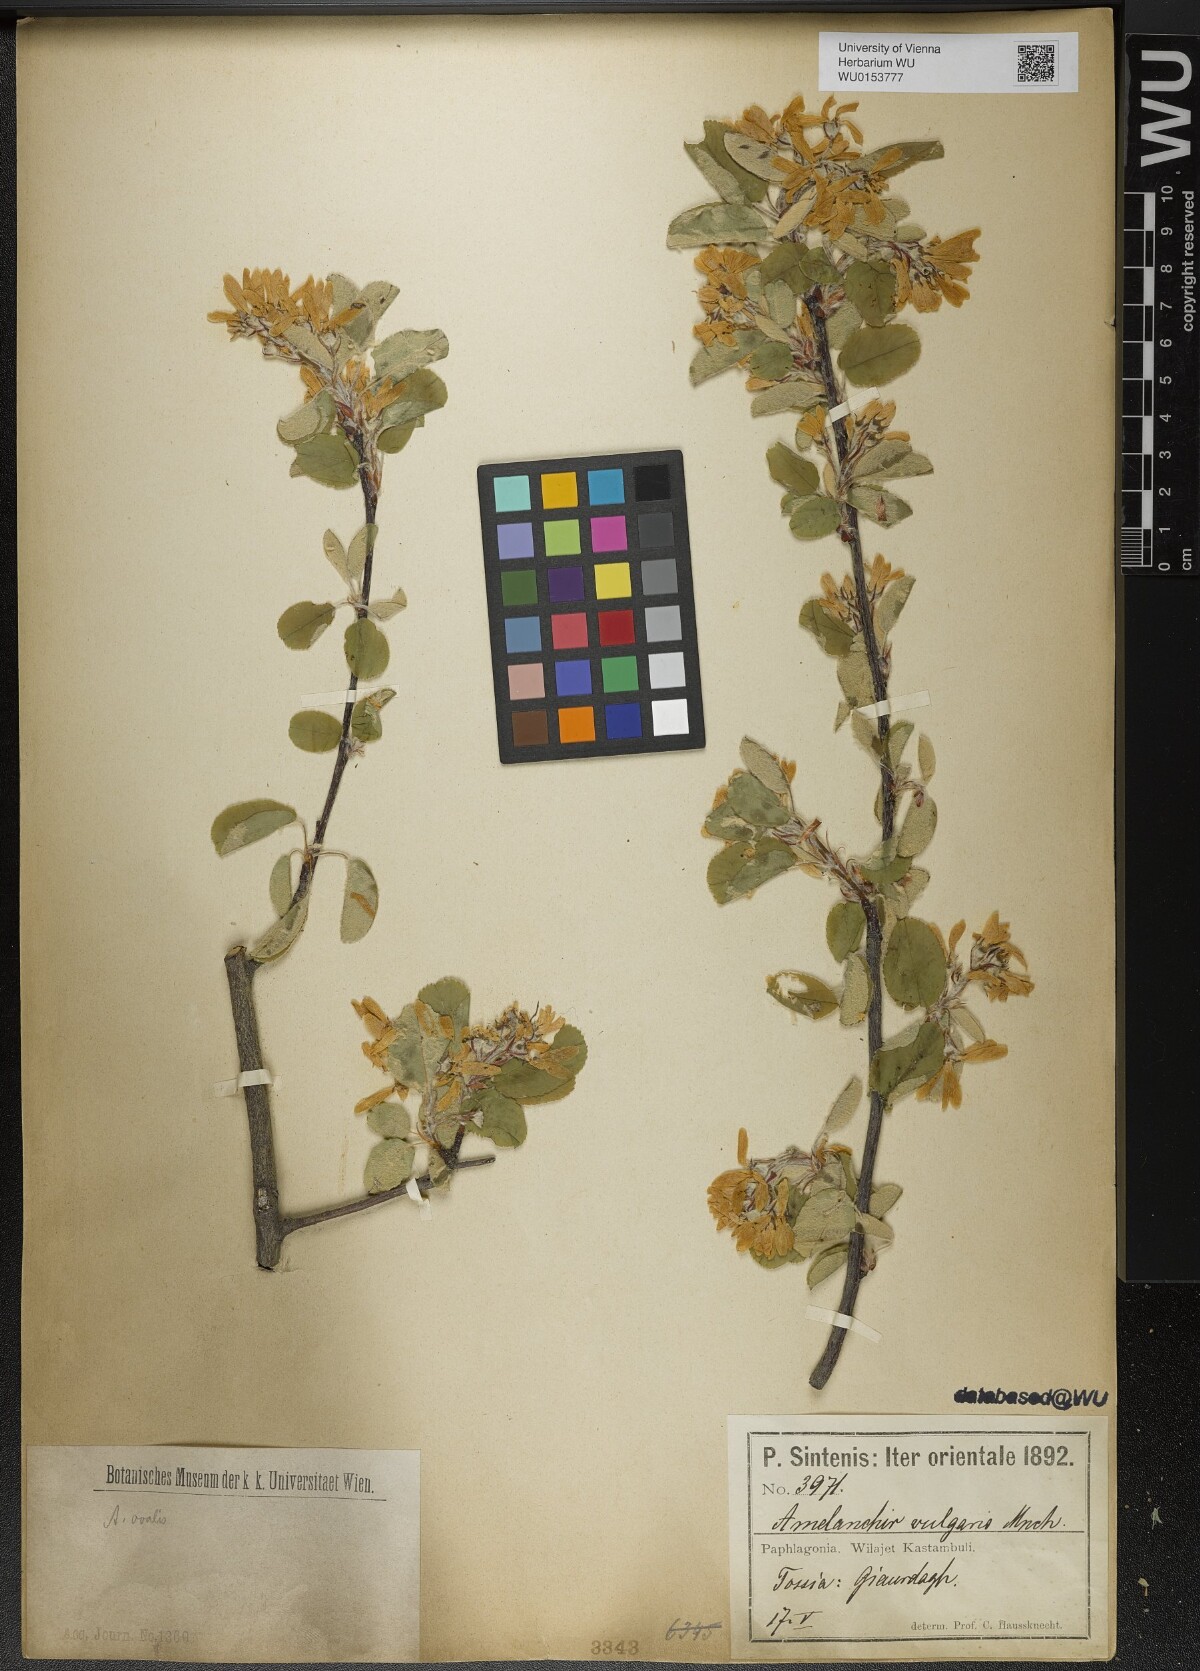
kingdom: Plantae
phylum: Tracheophyta
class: Magnoliopsida
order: Rosales
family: Rosaceae
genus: Amelanchier
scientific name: Amelanchier ovalis
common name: Serviceberry
